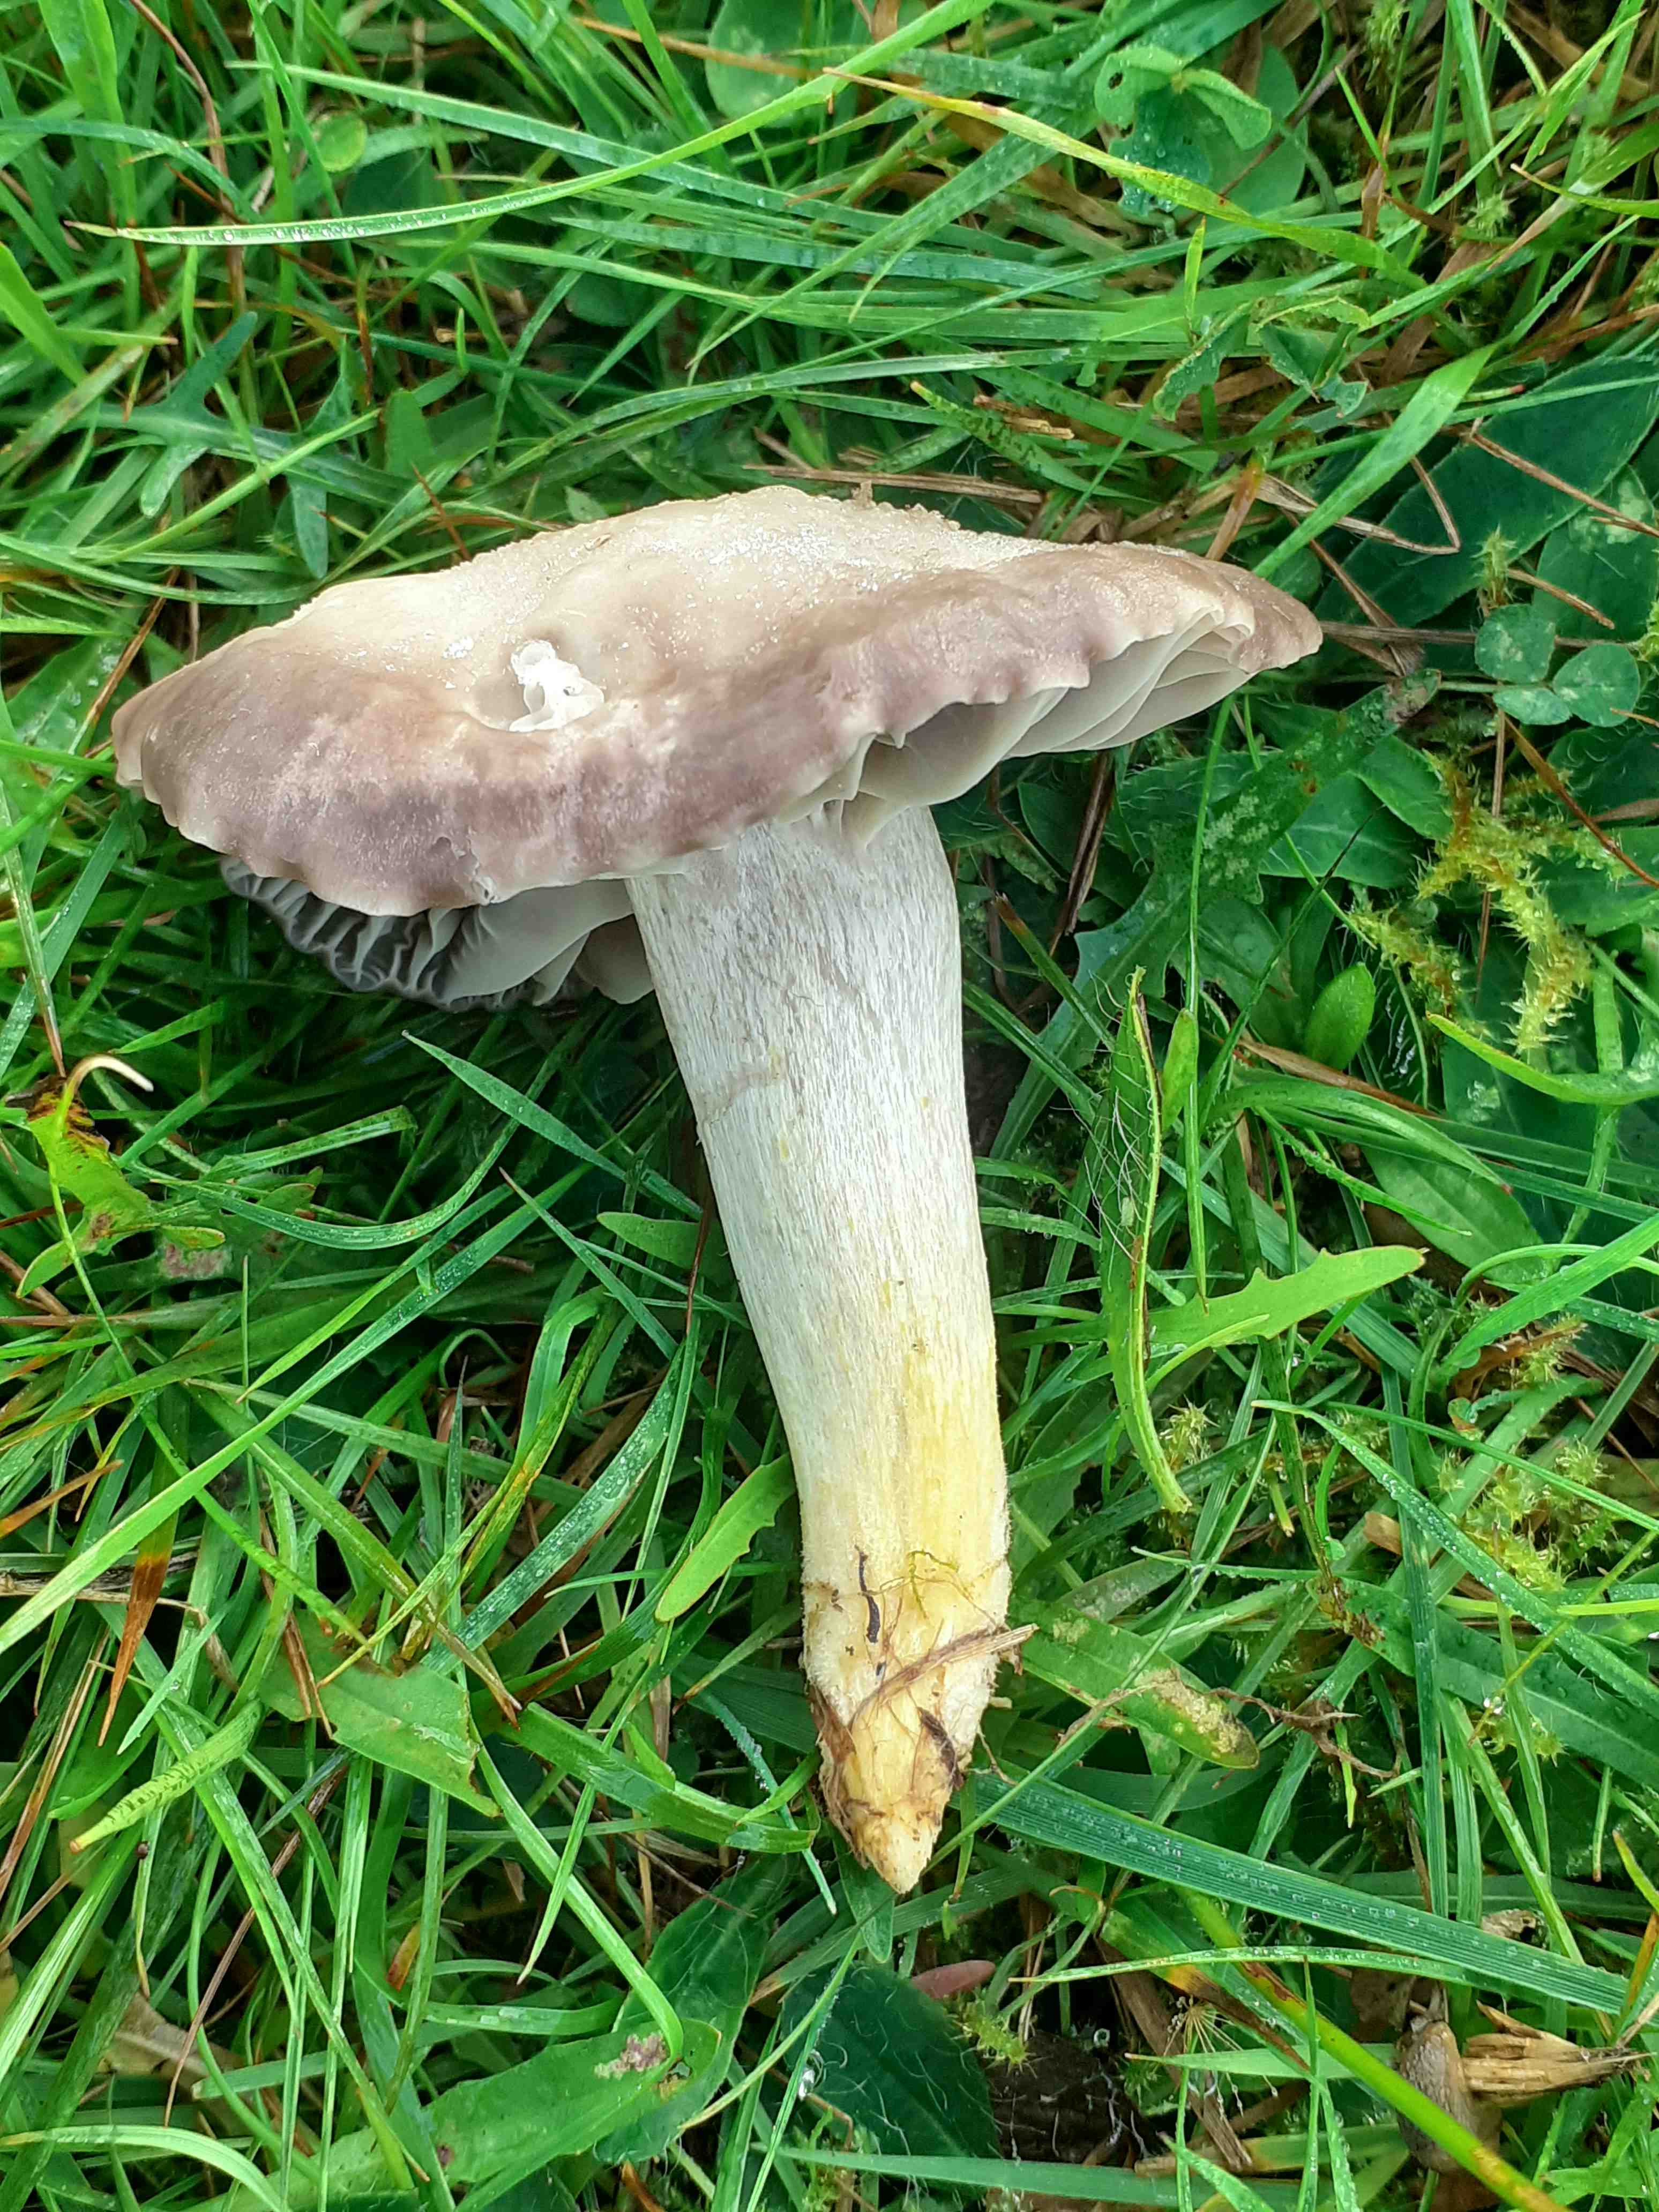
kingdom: Fungi
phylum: Basidiomycota
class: Agaricomycetes
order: Agaricales
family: Hygrophoraceae
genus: Cuphophyllus
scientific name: Cuphophyllus flavipes
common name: gulfodet vokshat
